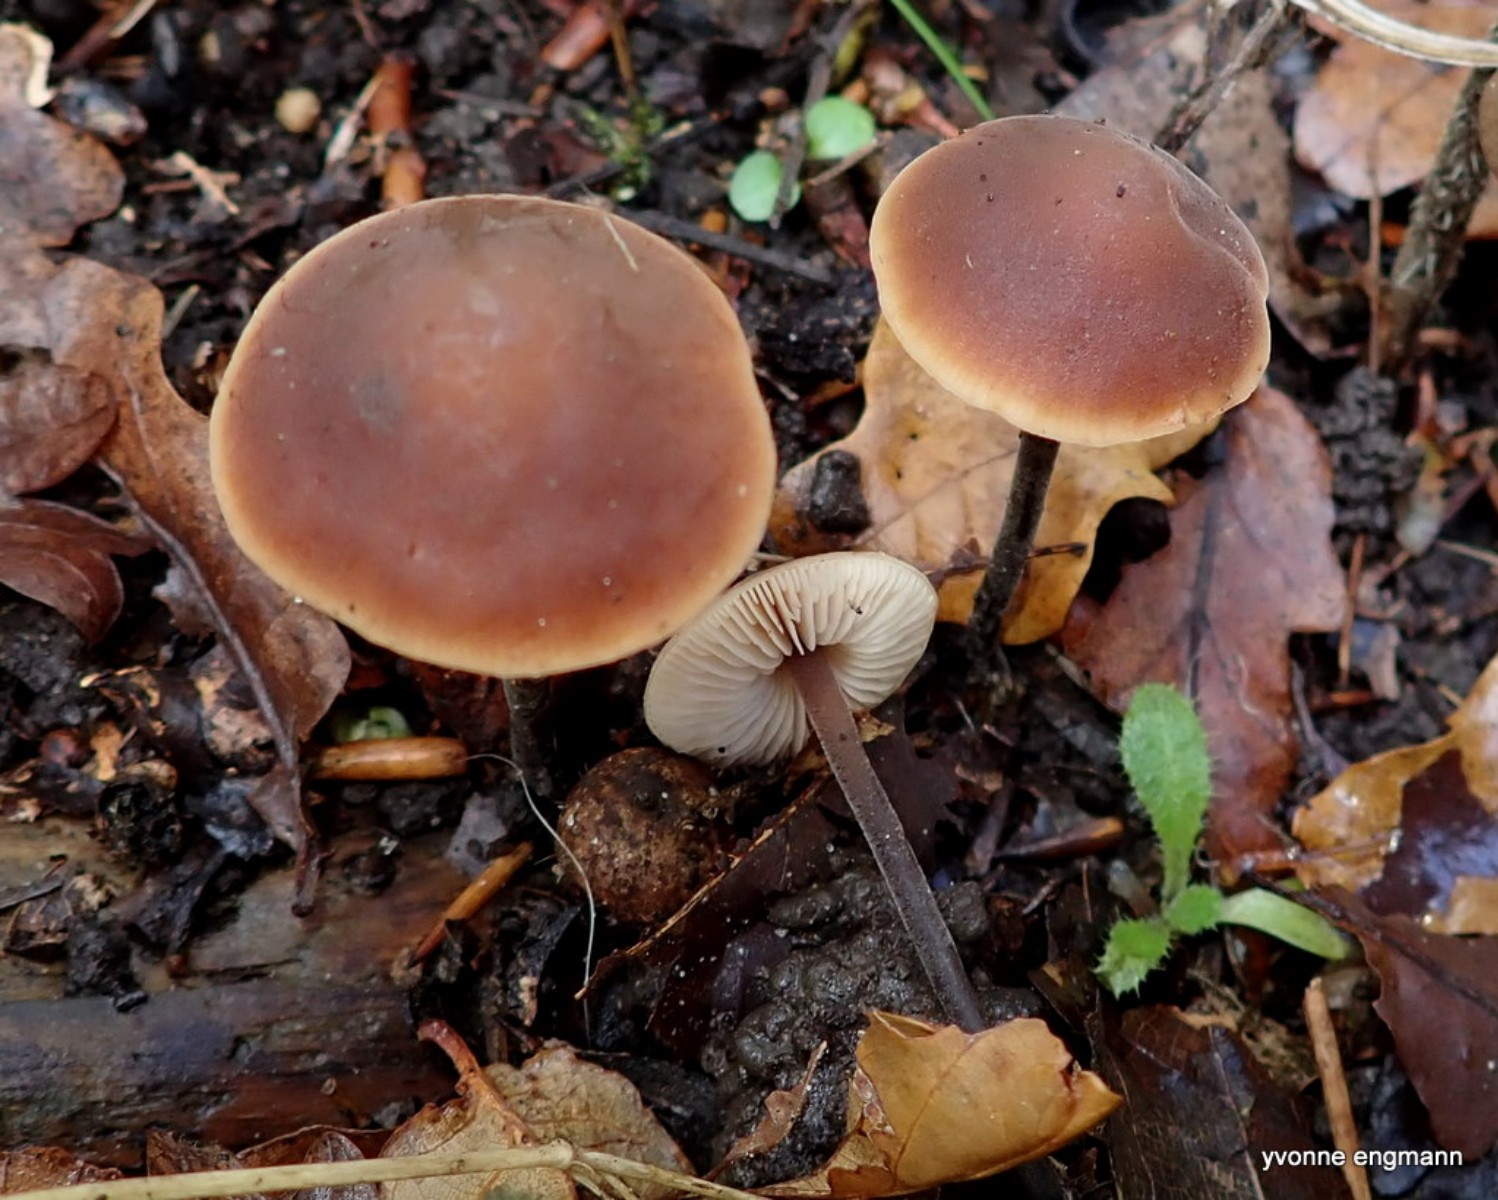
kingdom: Fungi
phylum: Basidiomycota
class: Agaricomycetes
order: Agaricales
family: Macrocystidiaceae
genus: Macrocystidia
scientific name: Macrocystidia cucumis
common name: agurkehat
